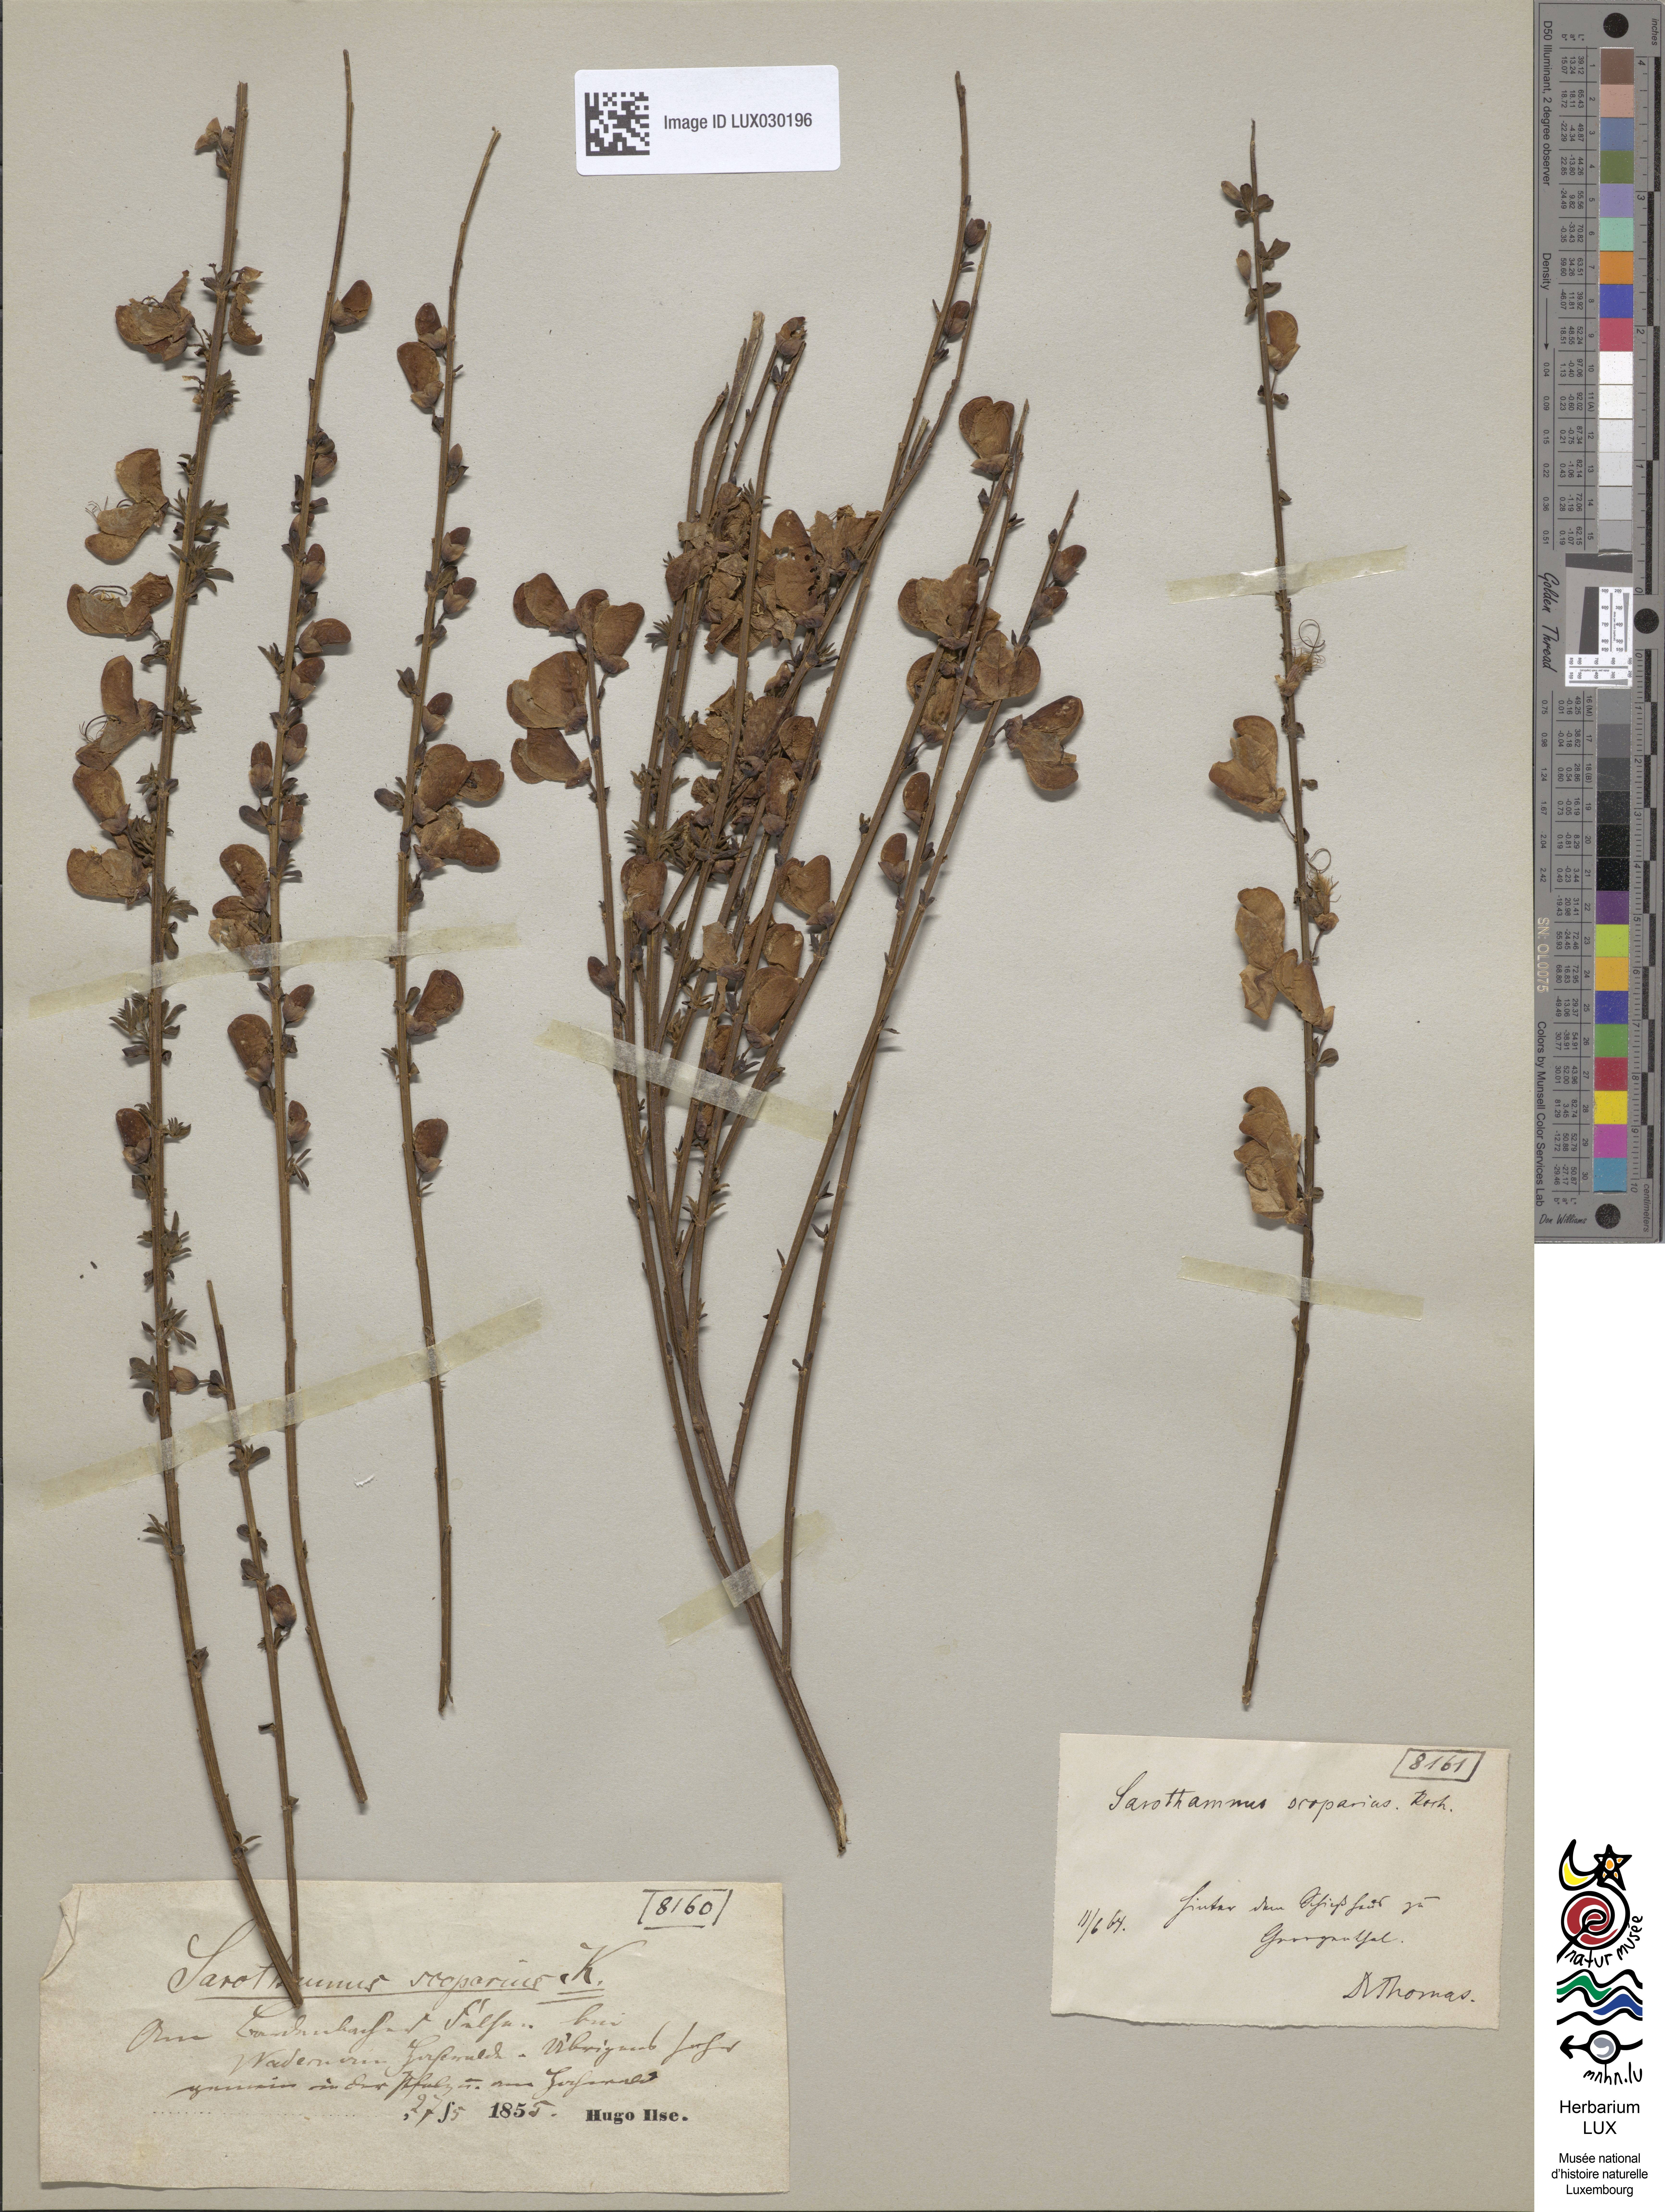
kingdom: Plantae
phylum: Tracheophyta
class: Magnoliopsida
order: Fabales
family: Fabaceae
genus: Cytisus
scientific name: Cytisus scoparius
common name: Scotch broom
